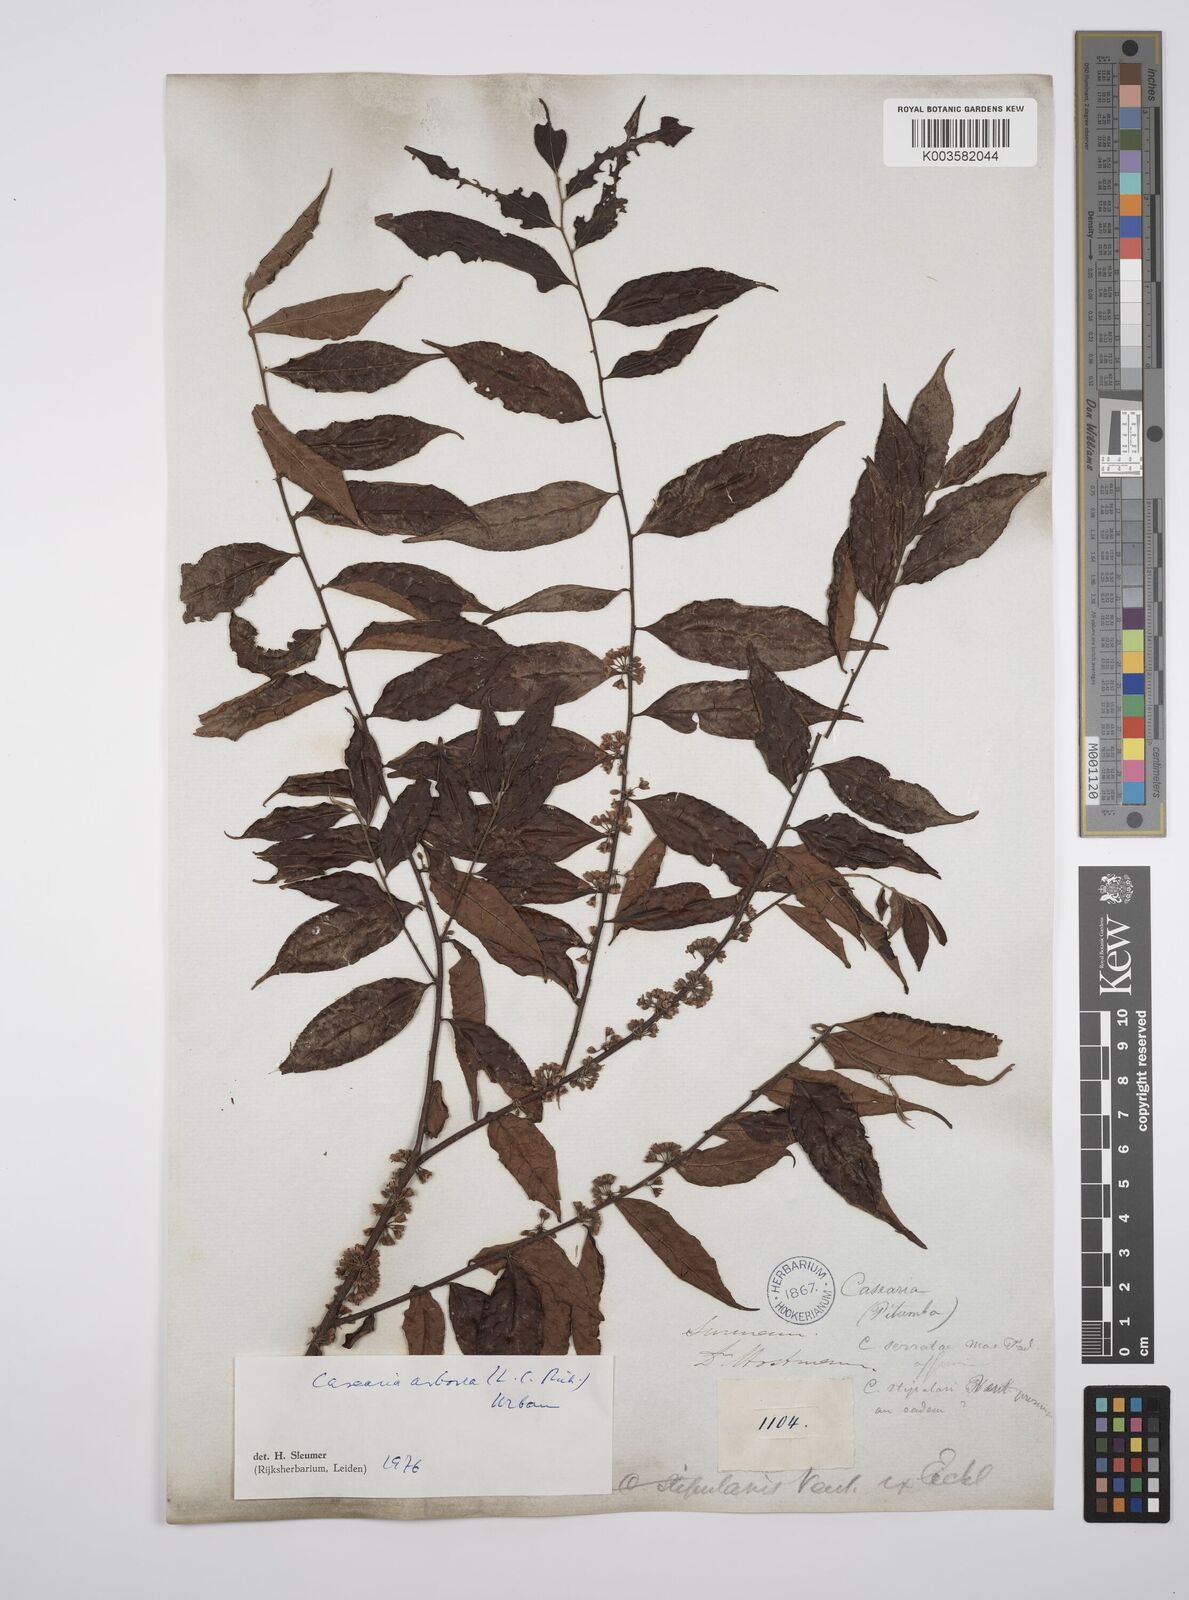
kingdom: Plantae
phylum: Tracheophyta
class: Magnoliopsida
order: Malpighiales
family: Salicaceae
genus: Casearia
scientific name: Casearia arborea
